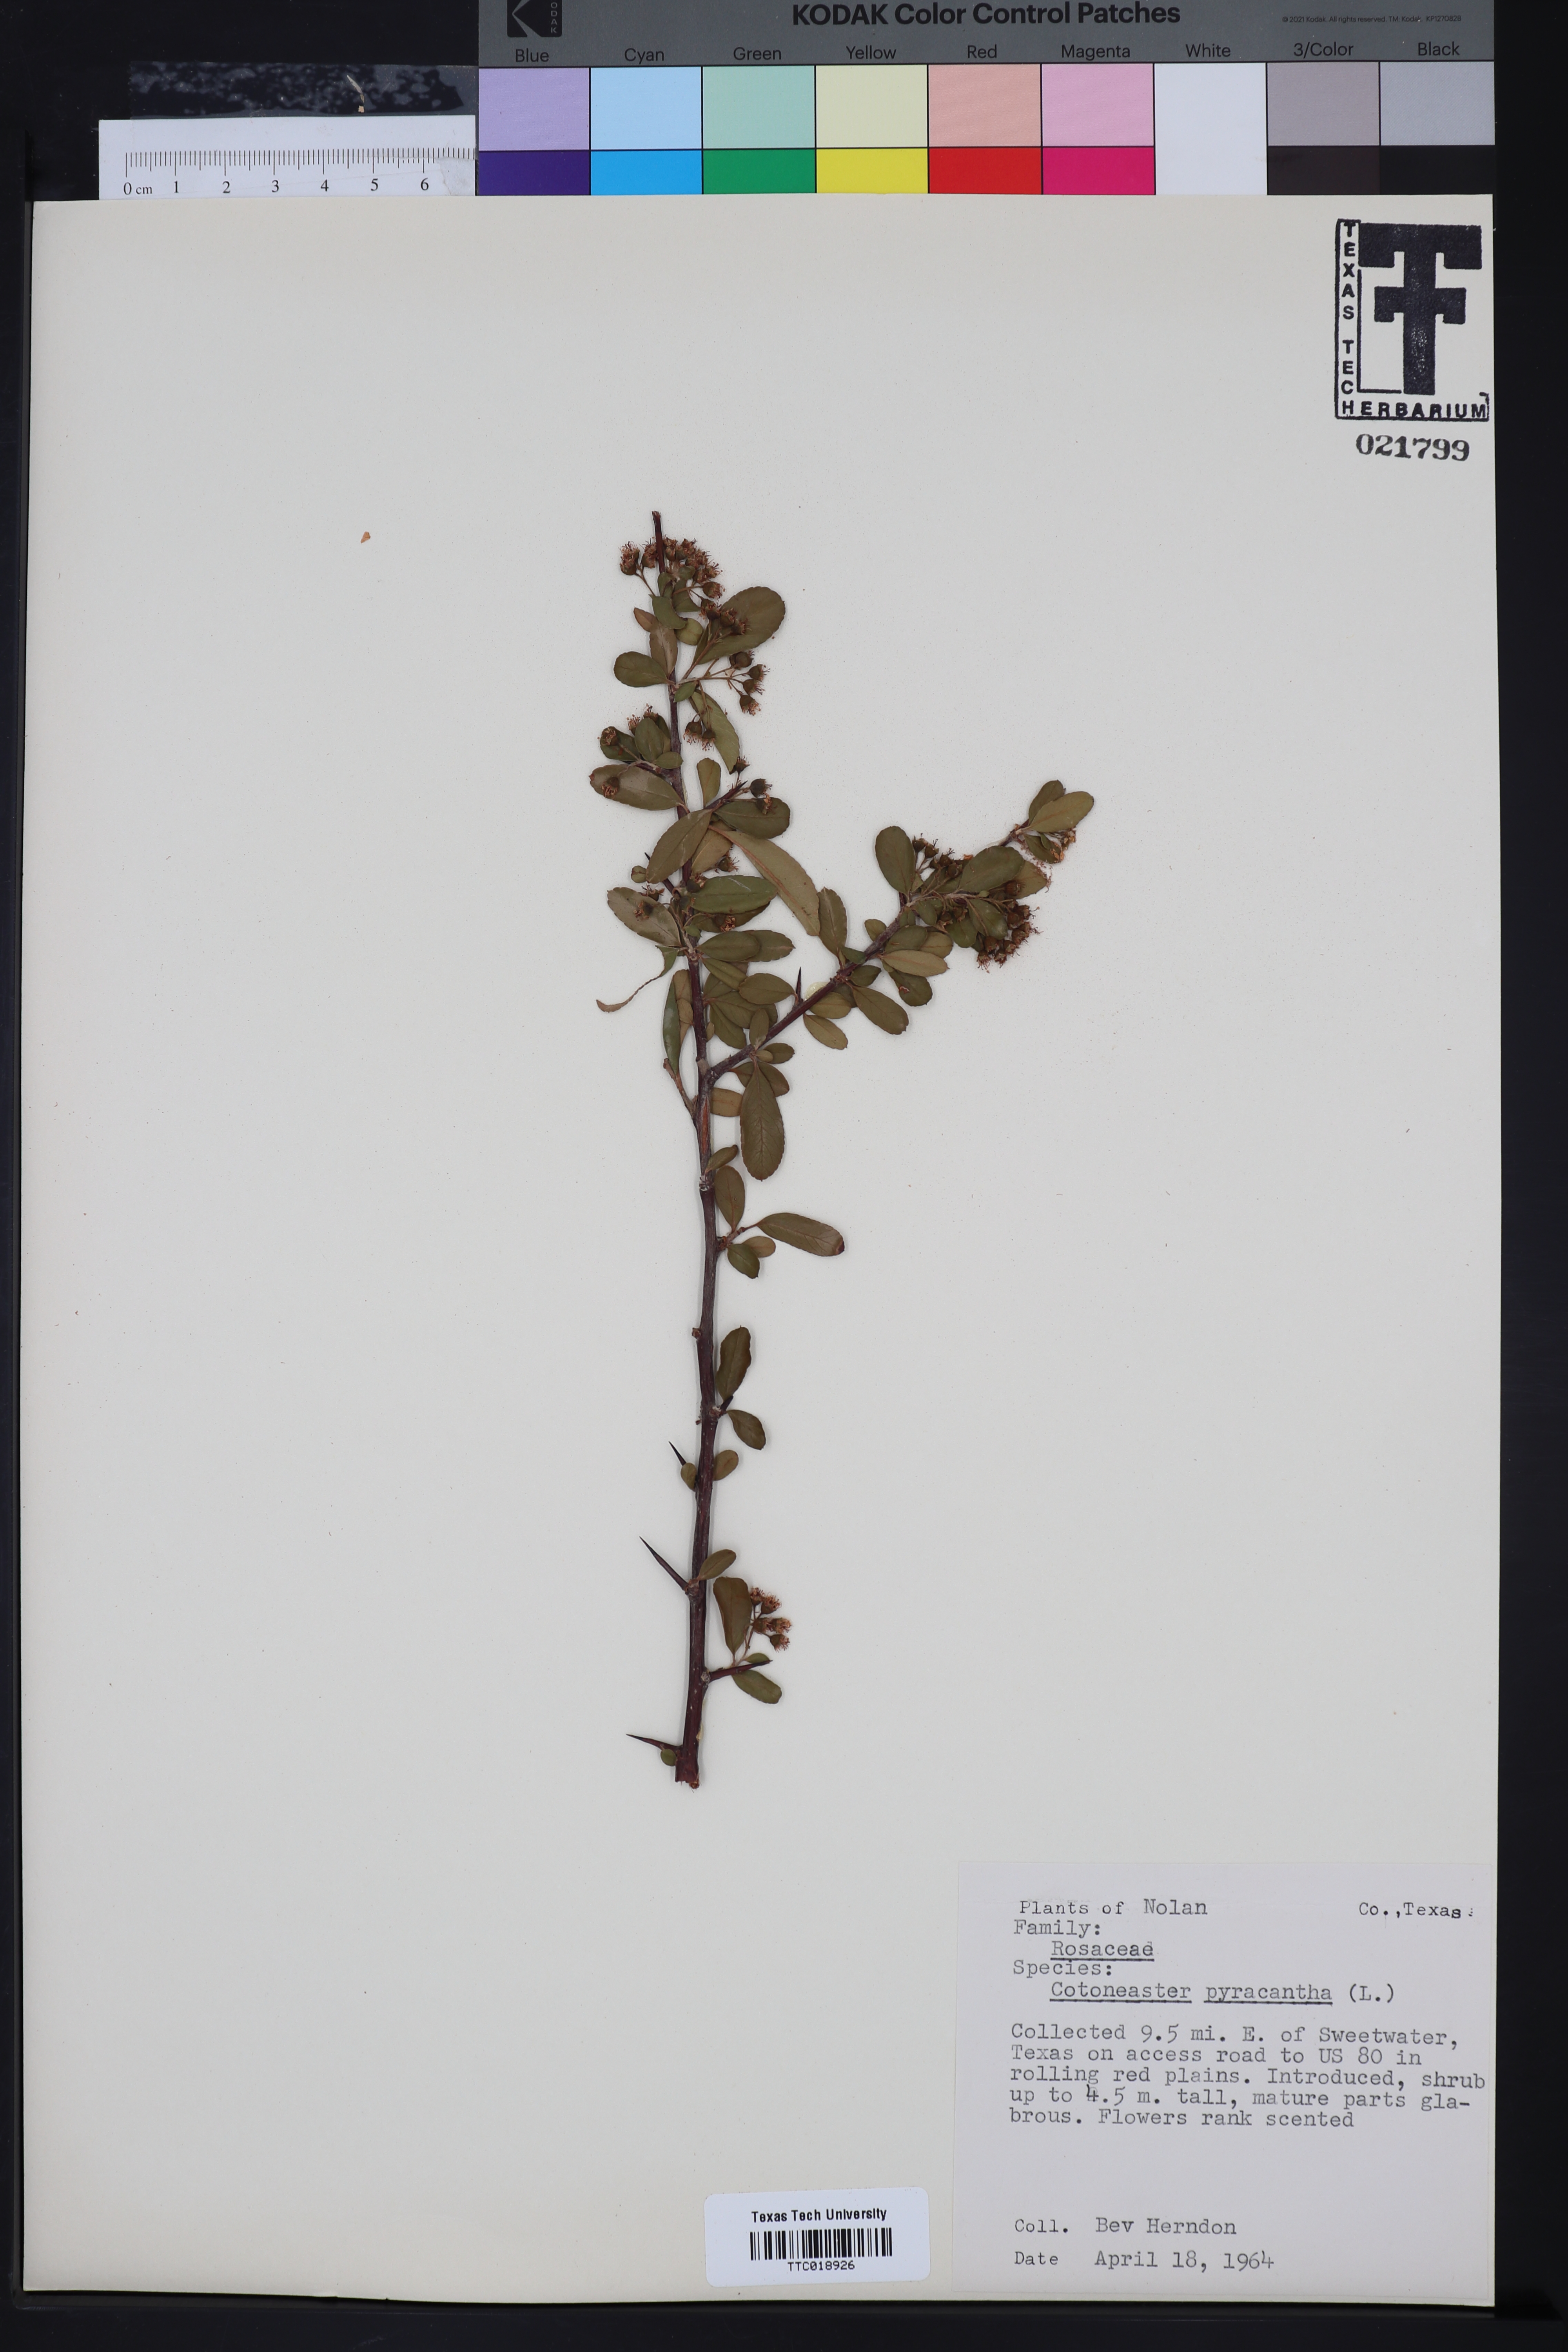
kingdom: Plantae
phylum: Tracheophyta
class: Magnoliopsida
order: Rosales
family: Rosaceae
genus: Pyracantha
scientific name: Pyracantha coccinea
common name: Firethorn
